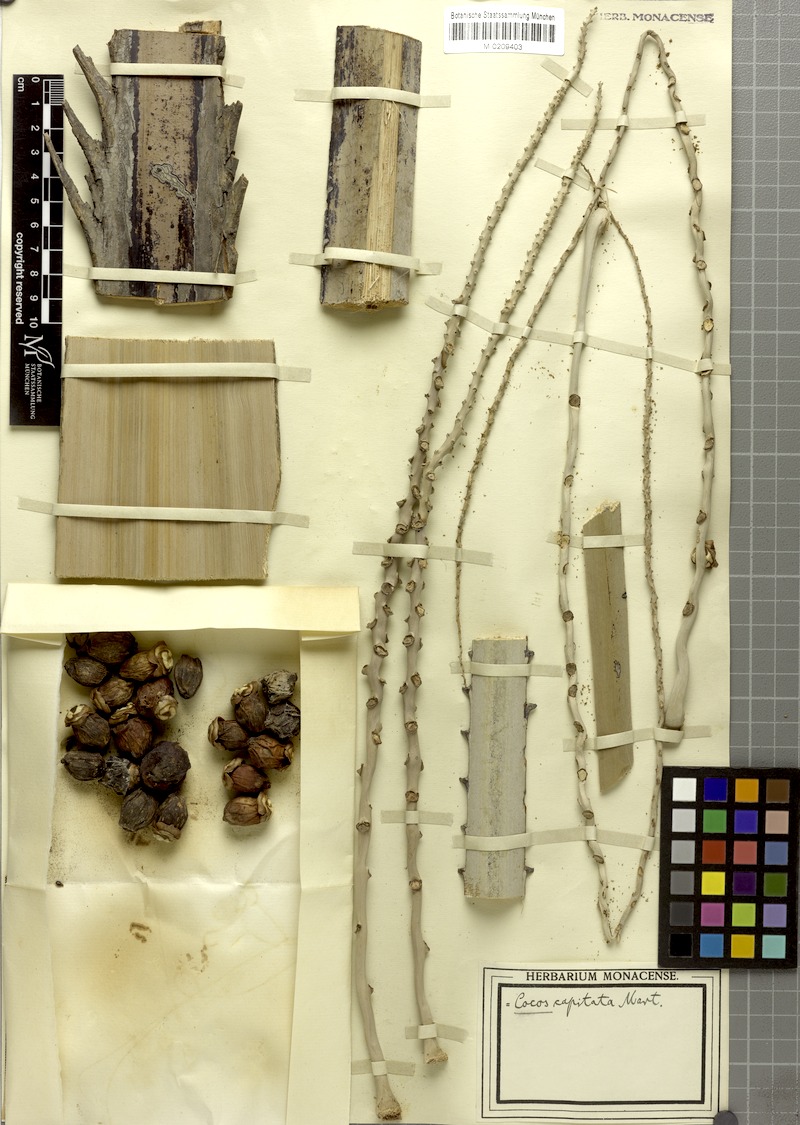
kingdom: Plantae
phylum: Tracheophyta
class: Liliopsida
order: Arecales
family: Arecaceae
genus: Butia
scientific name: Butia capitata
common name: South american jelly palm
